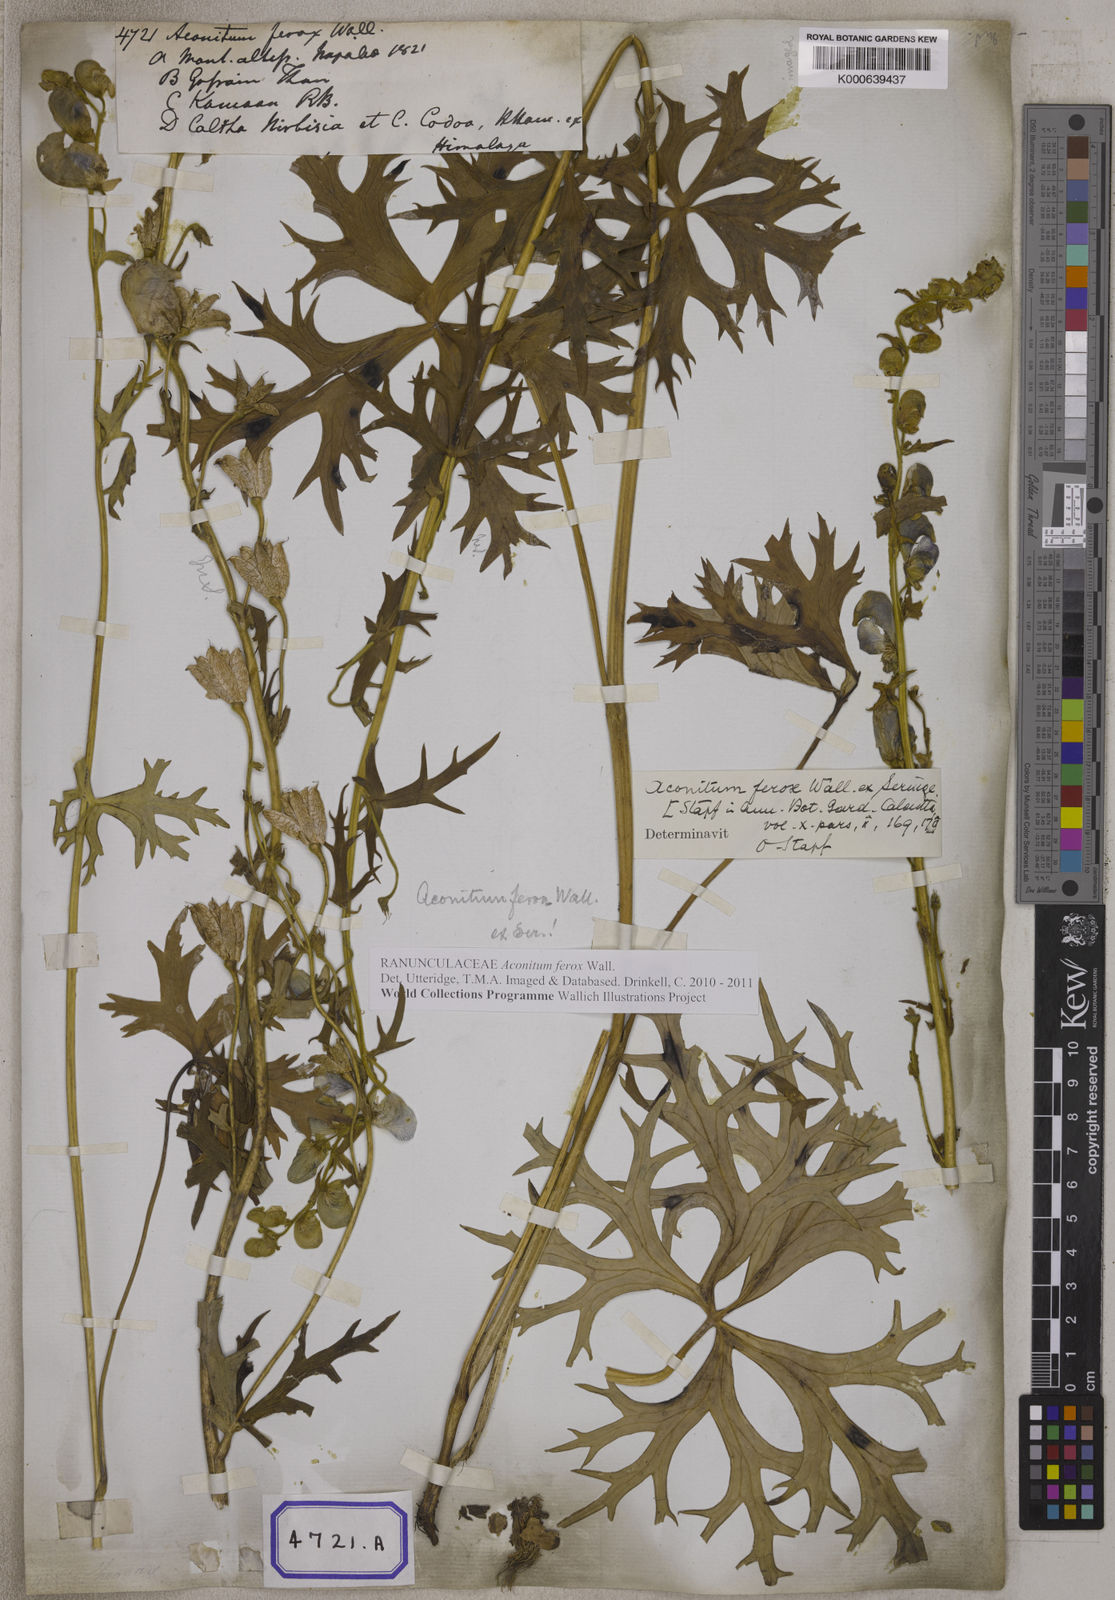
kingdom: Plantae
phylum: Tracheophyta
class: Magnoliopsida
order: Ranunculales
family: Ranunculaceae
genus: Aconitum
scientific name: Aconitum
